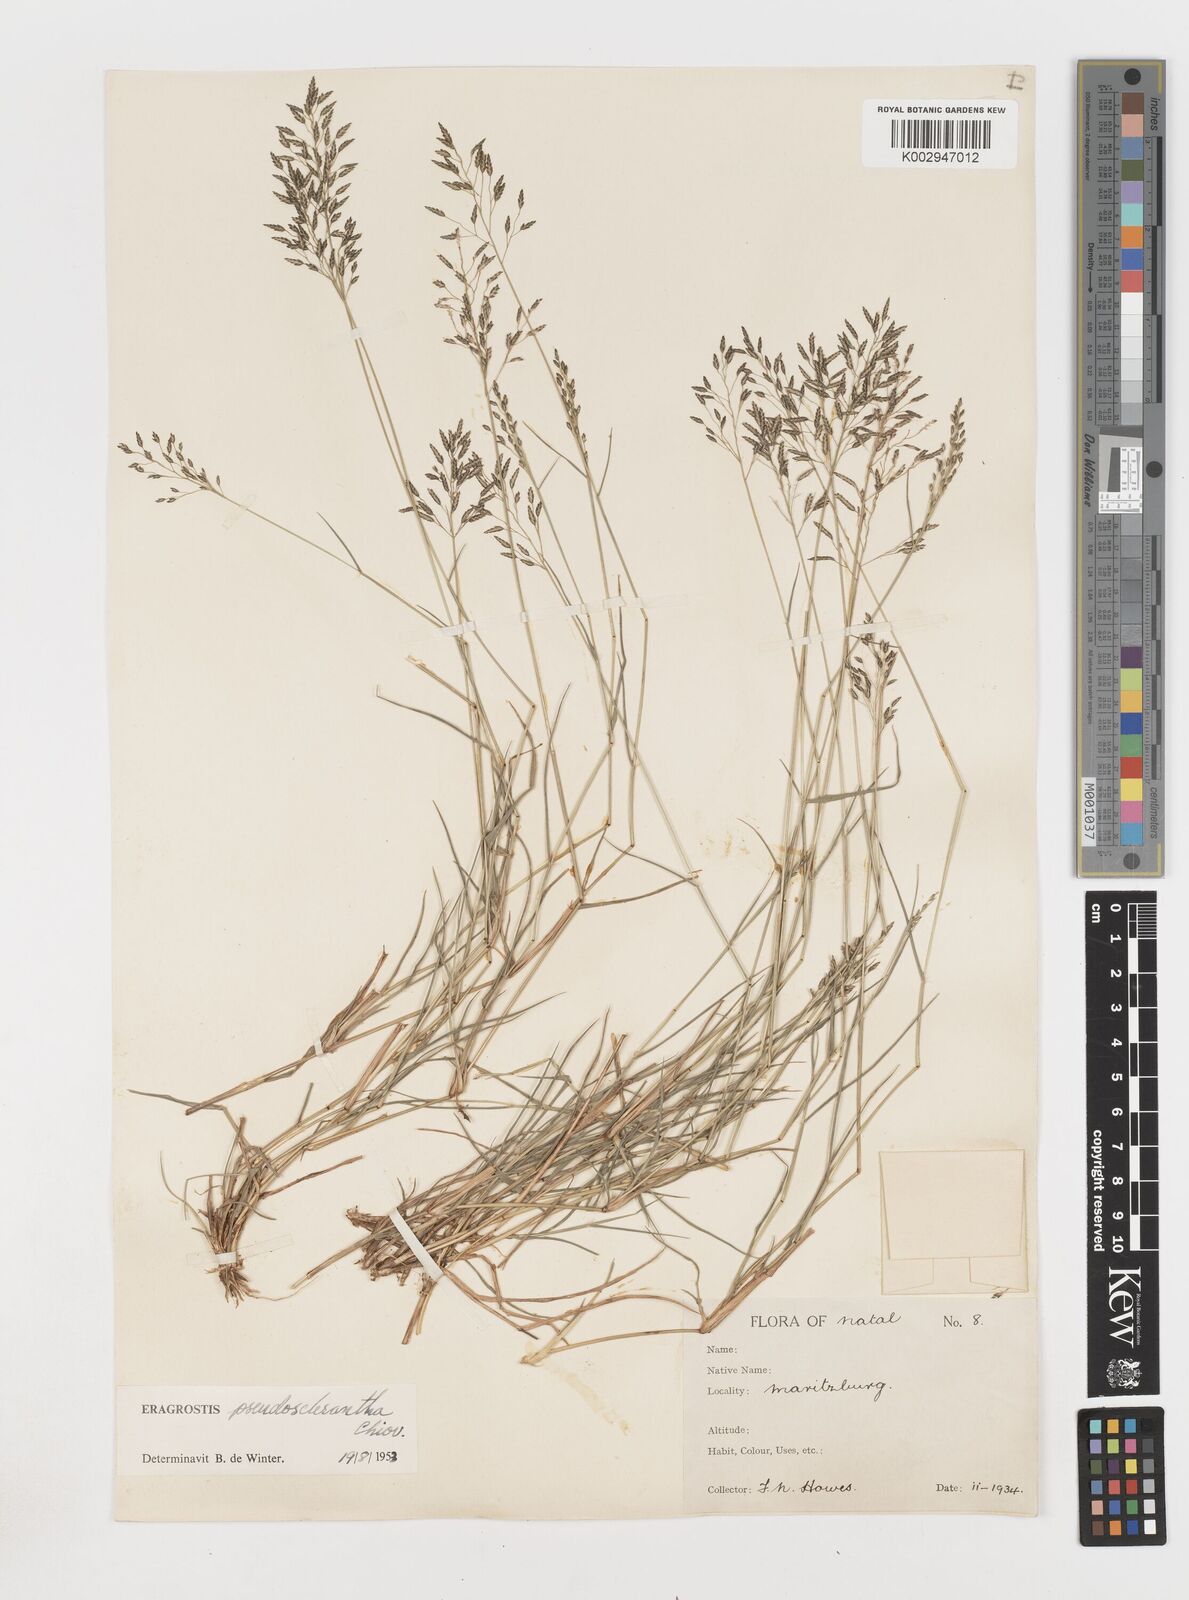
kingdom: Plantae
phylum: Tracheophyta
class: Liliopsida
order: Poales
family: Poaceae
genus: Eragrostis
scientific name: Eragrostis patentipilosa
